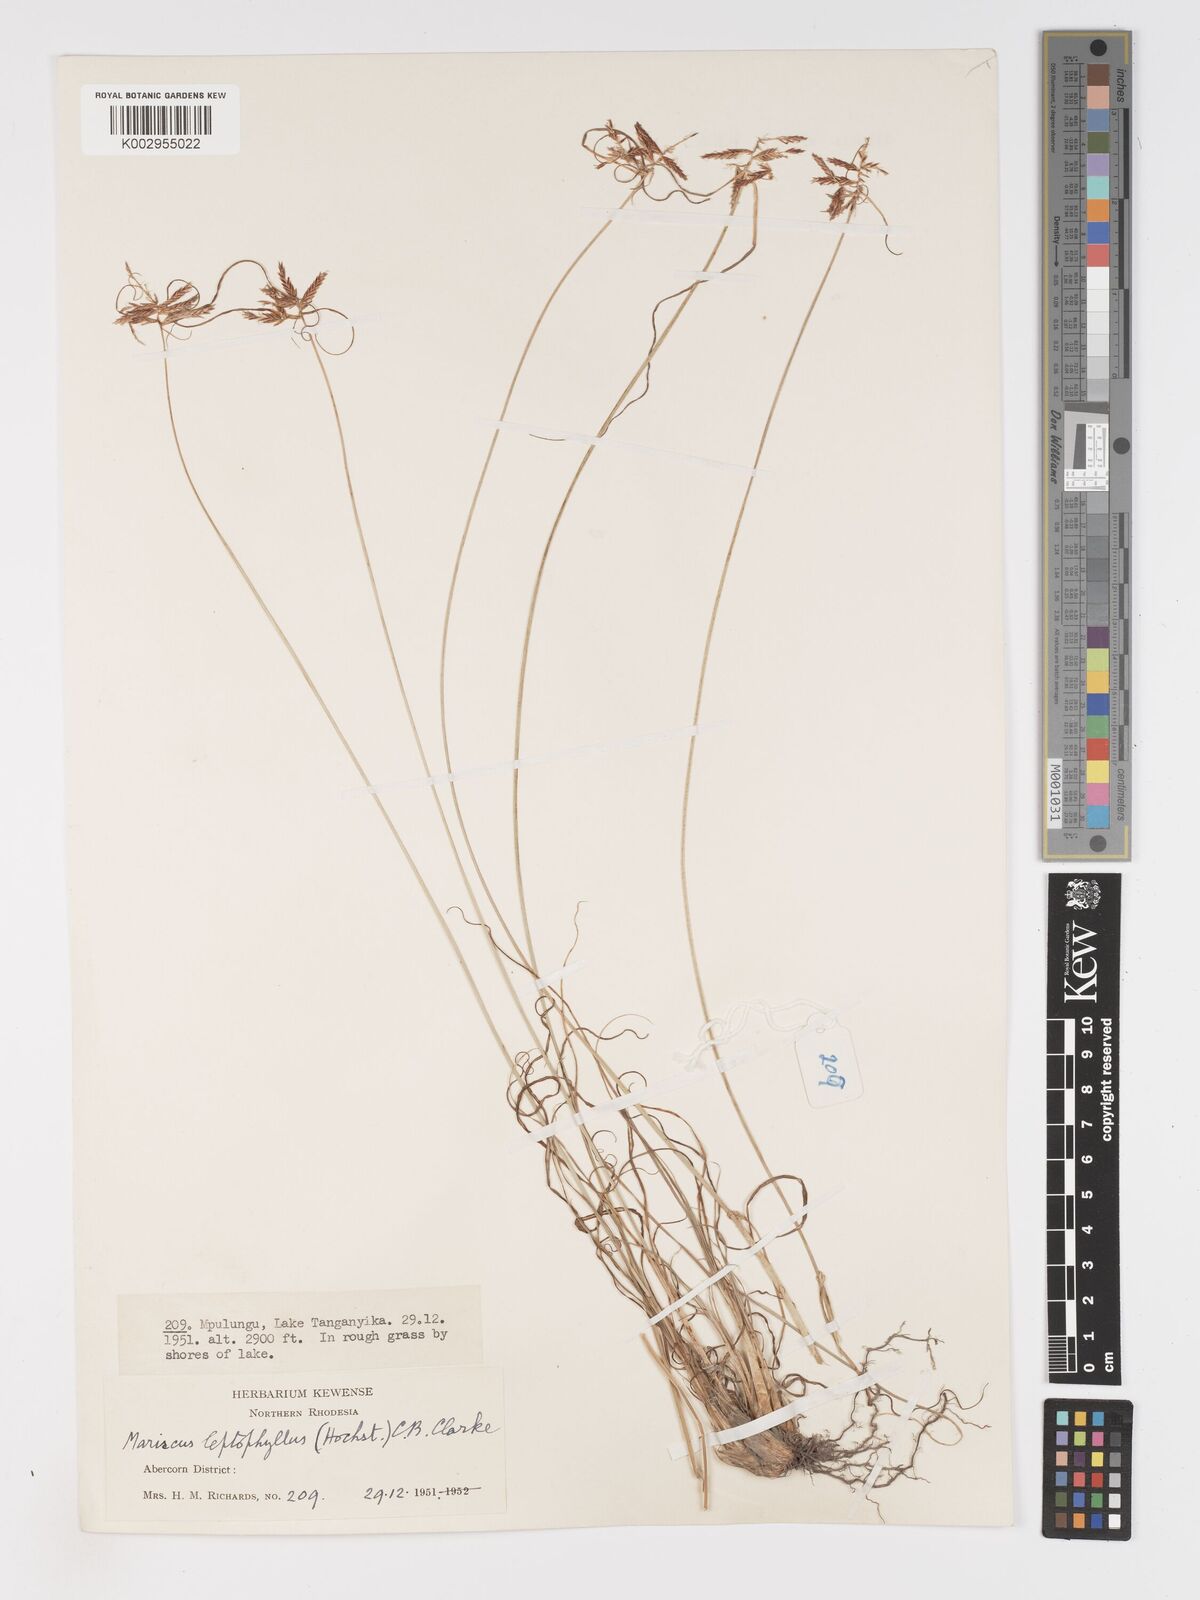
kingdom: Plantae
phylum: Tracheophyta
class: Liliopsida
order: Poales
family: Cyperaceae
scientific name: Cyperaceae
